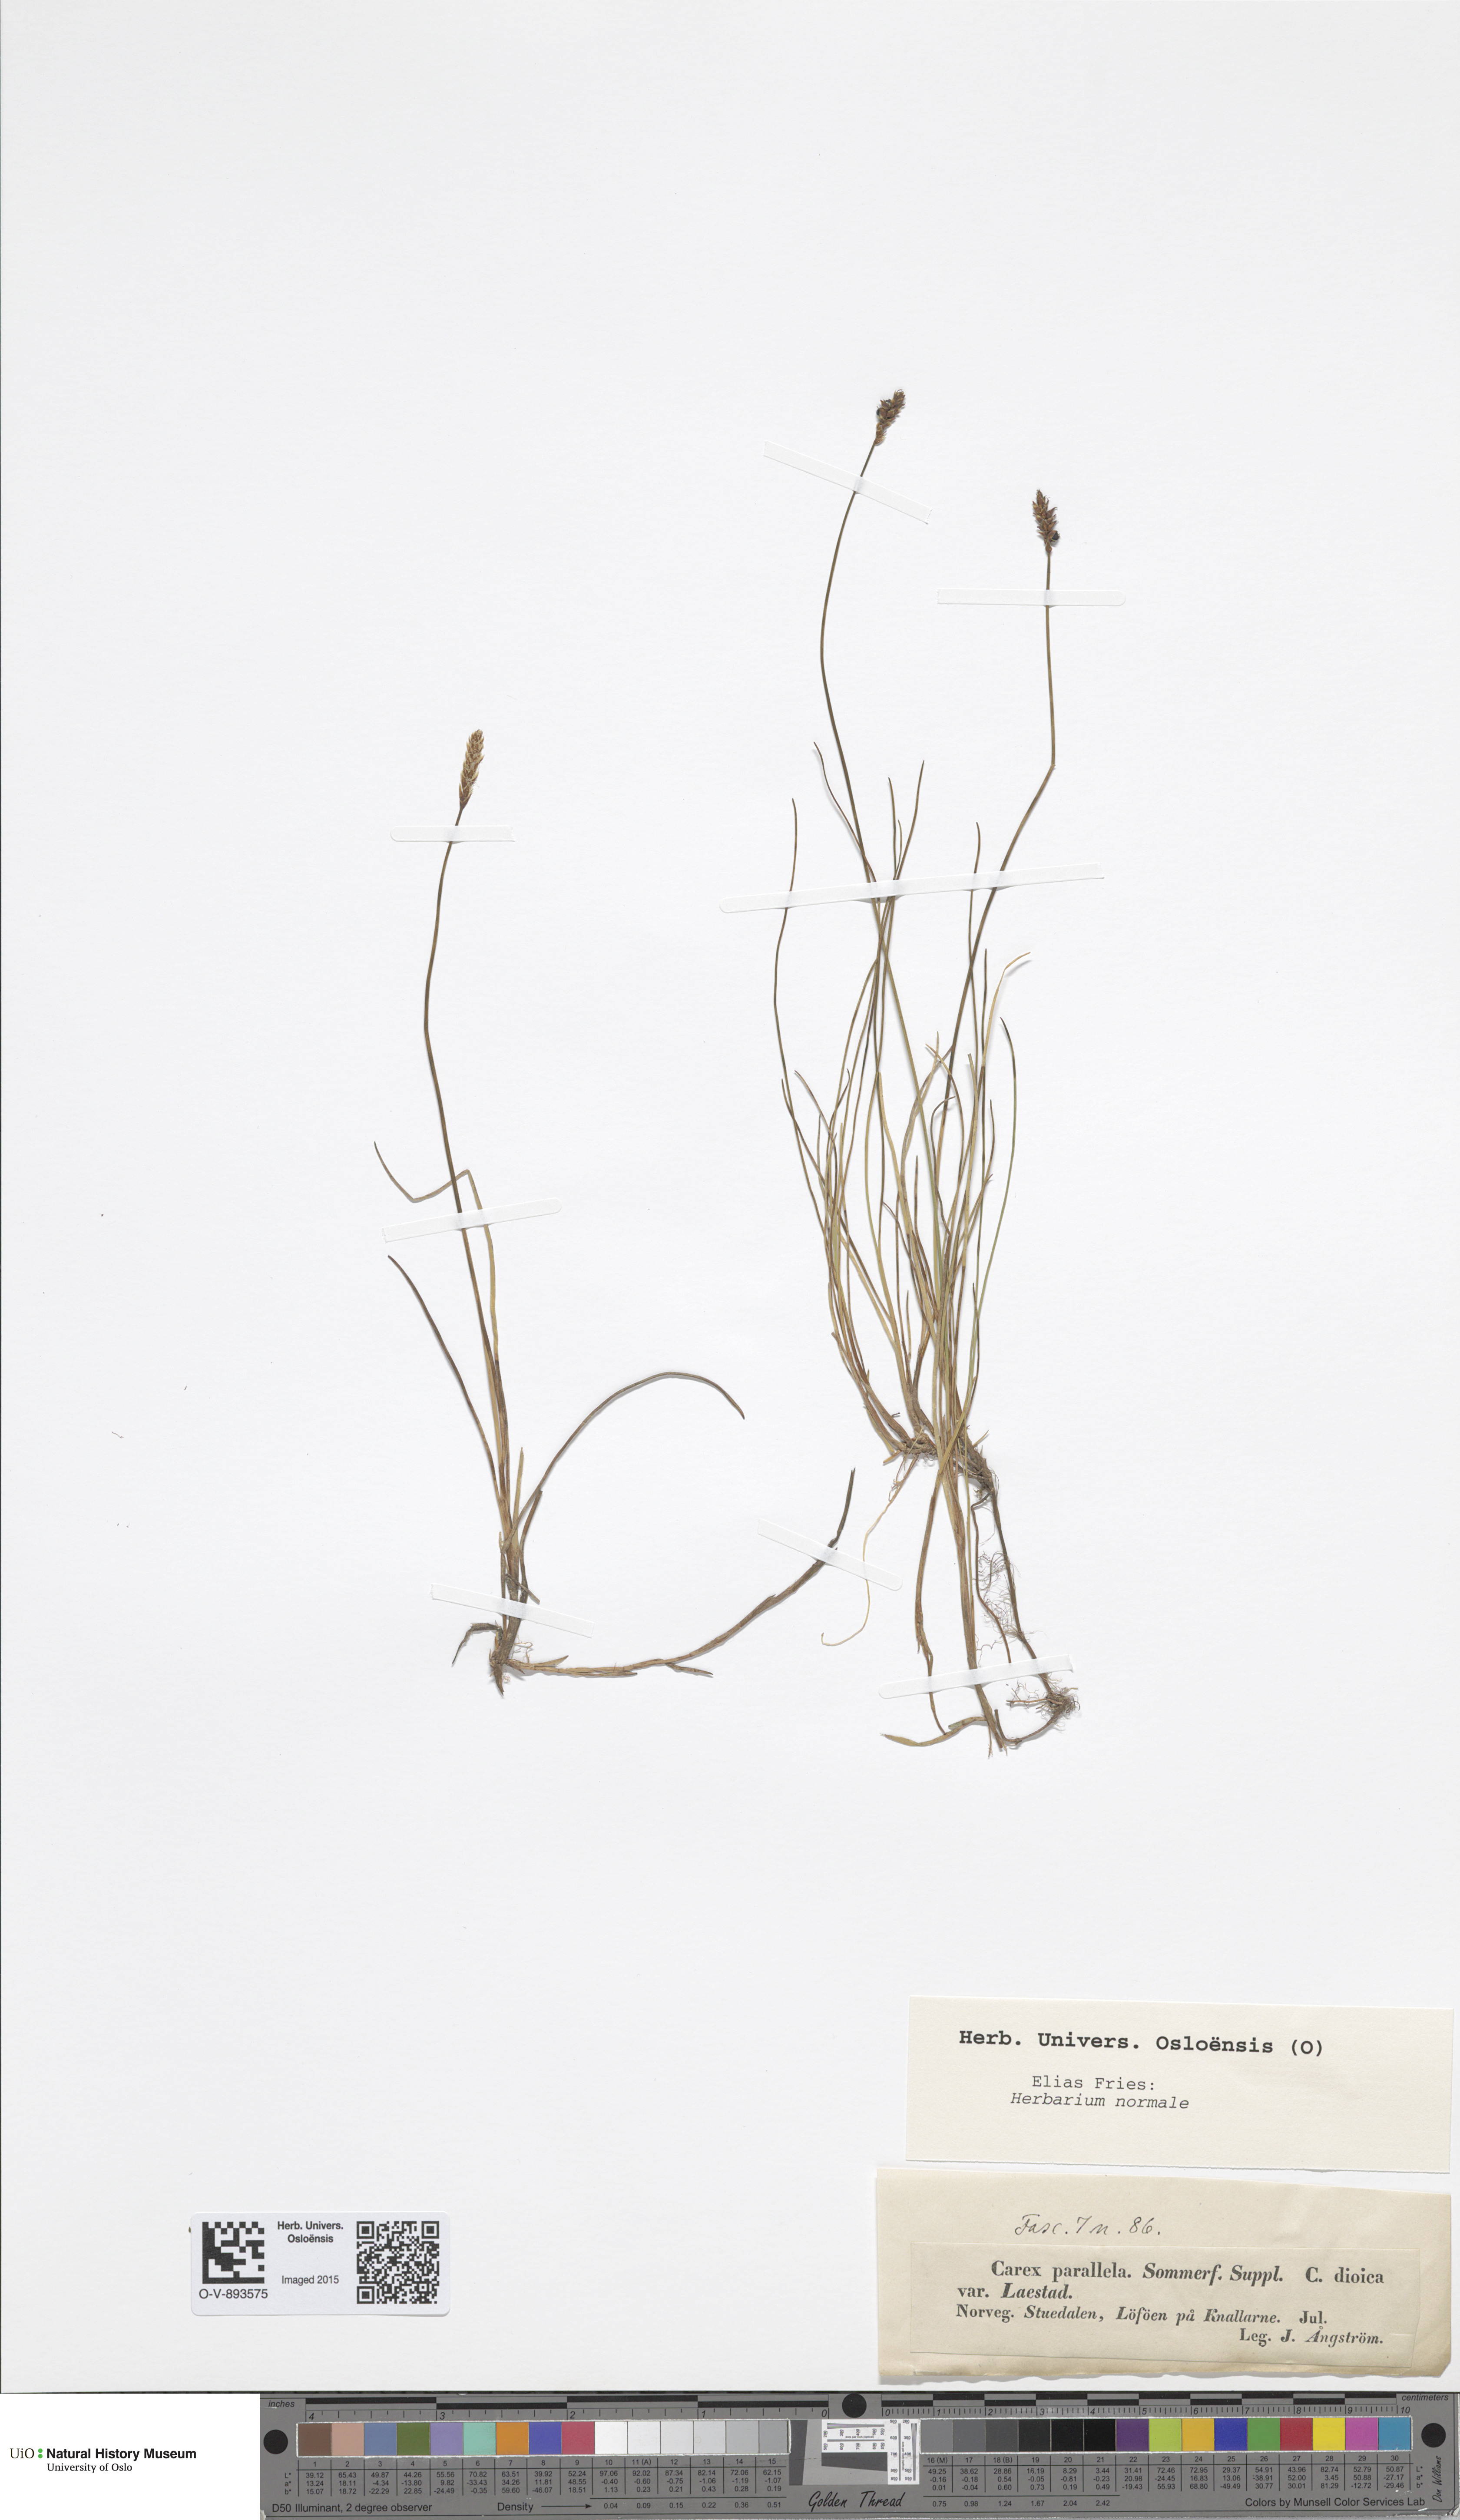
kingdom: Plantae
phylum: Tracheophyta
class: Liliopsida
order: Poales
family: Cyperaceae
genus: Carex
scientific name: Carex parallela
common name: Parallel sedge
